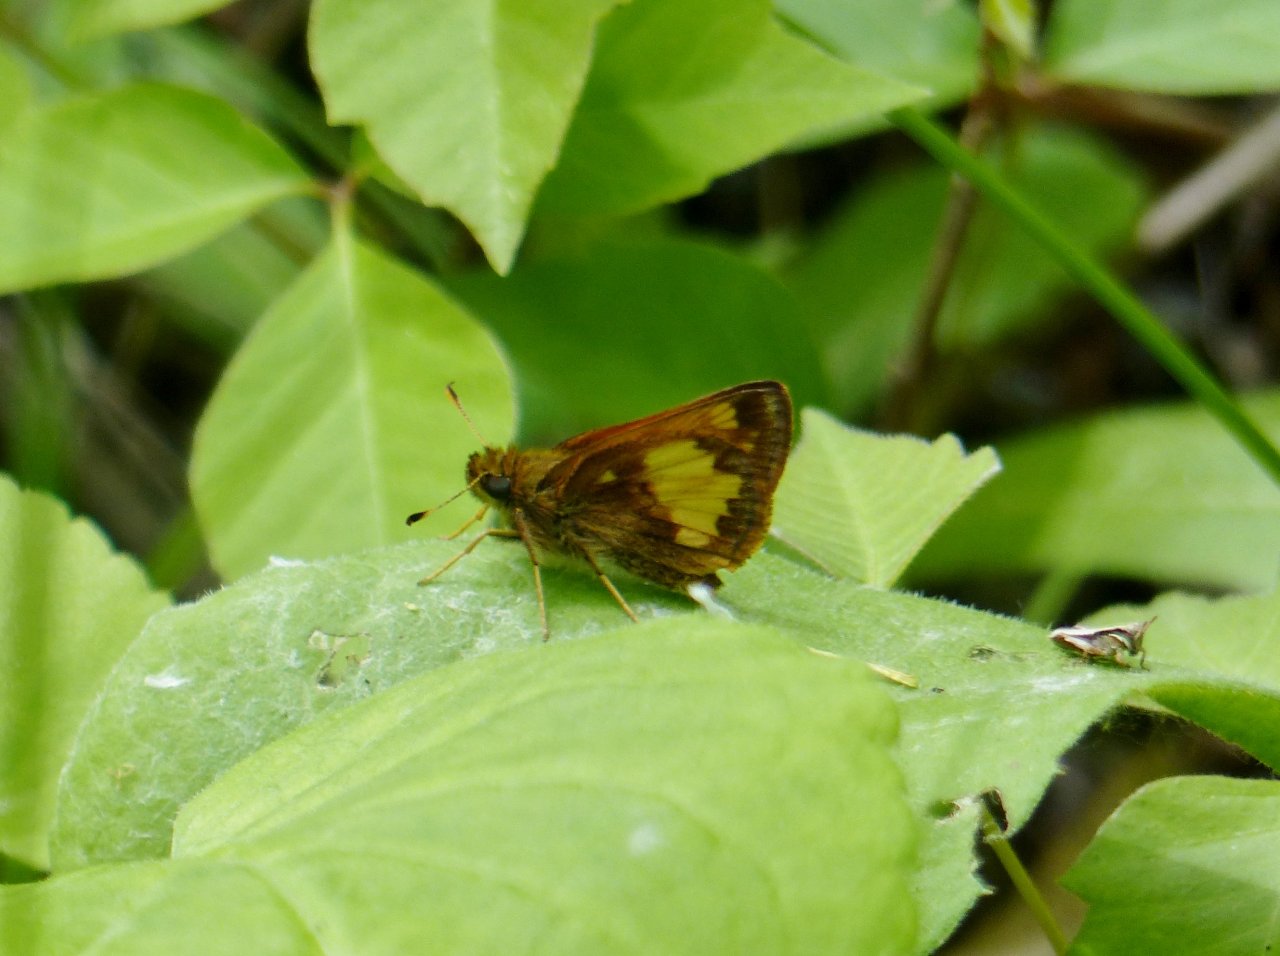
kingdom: Animalia
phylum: Arthropoda
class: Insecta
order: Lepidoptera
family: Hesperiidae
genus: Lon
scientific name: Lon hobomok
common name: Hobomok Skipper
